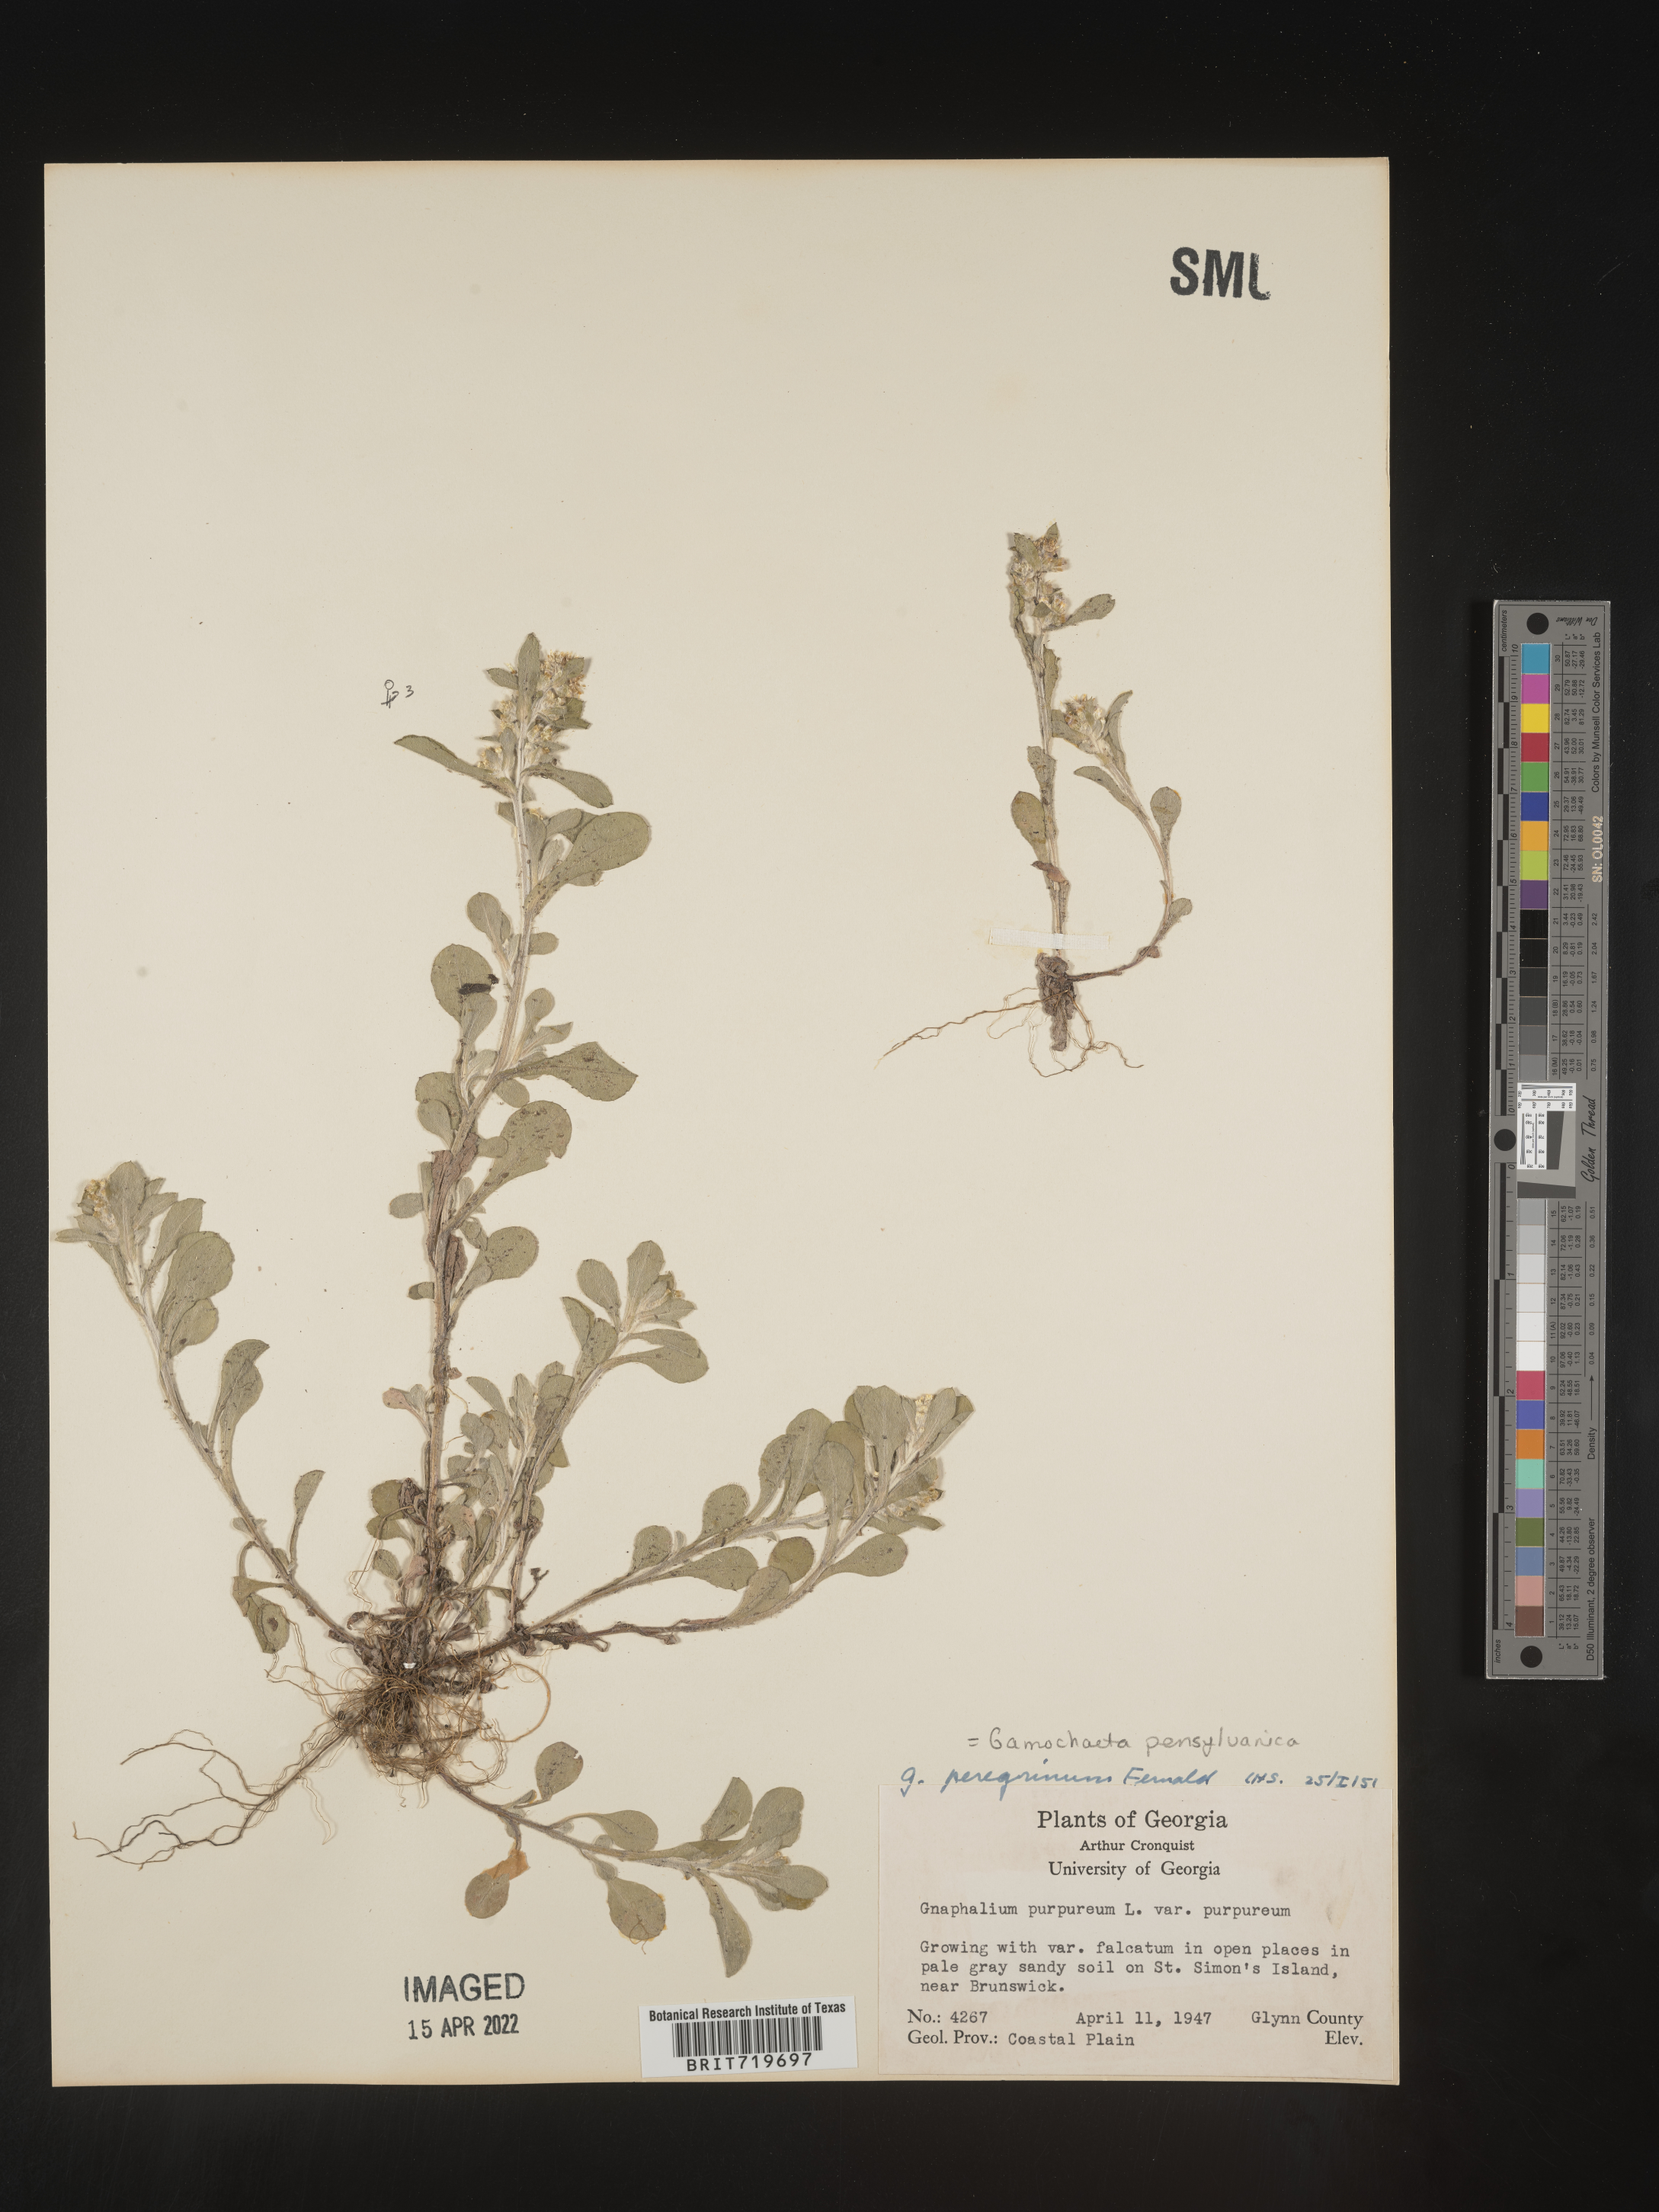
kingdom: Plantae
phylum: Tracheophyta
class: Magnoliopsida
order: Asterales
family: Asteraceae
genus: Gamochaeta
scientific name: Gamochaeta pensylvanica
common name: Pennsylvania everlasting
